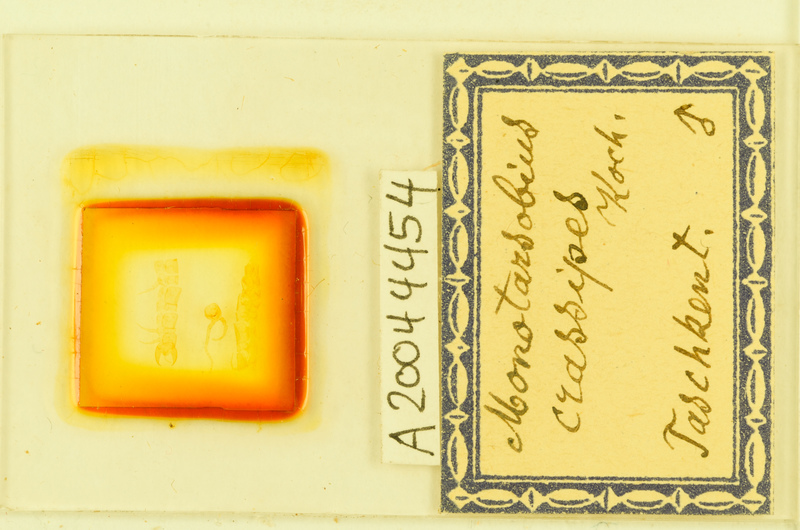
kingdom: Animalia
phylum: Arthropoda
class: Chilopoda
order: Lithobiomorpha
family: Lithobiidae
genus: Lithobius
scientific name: Lithobius crassipes
